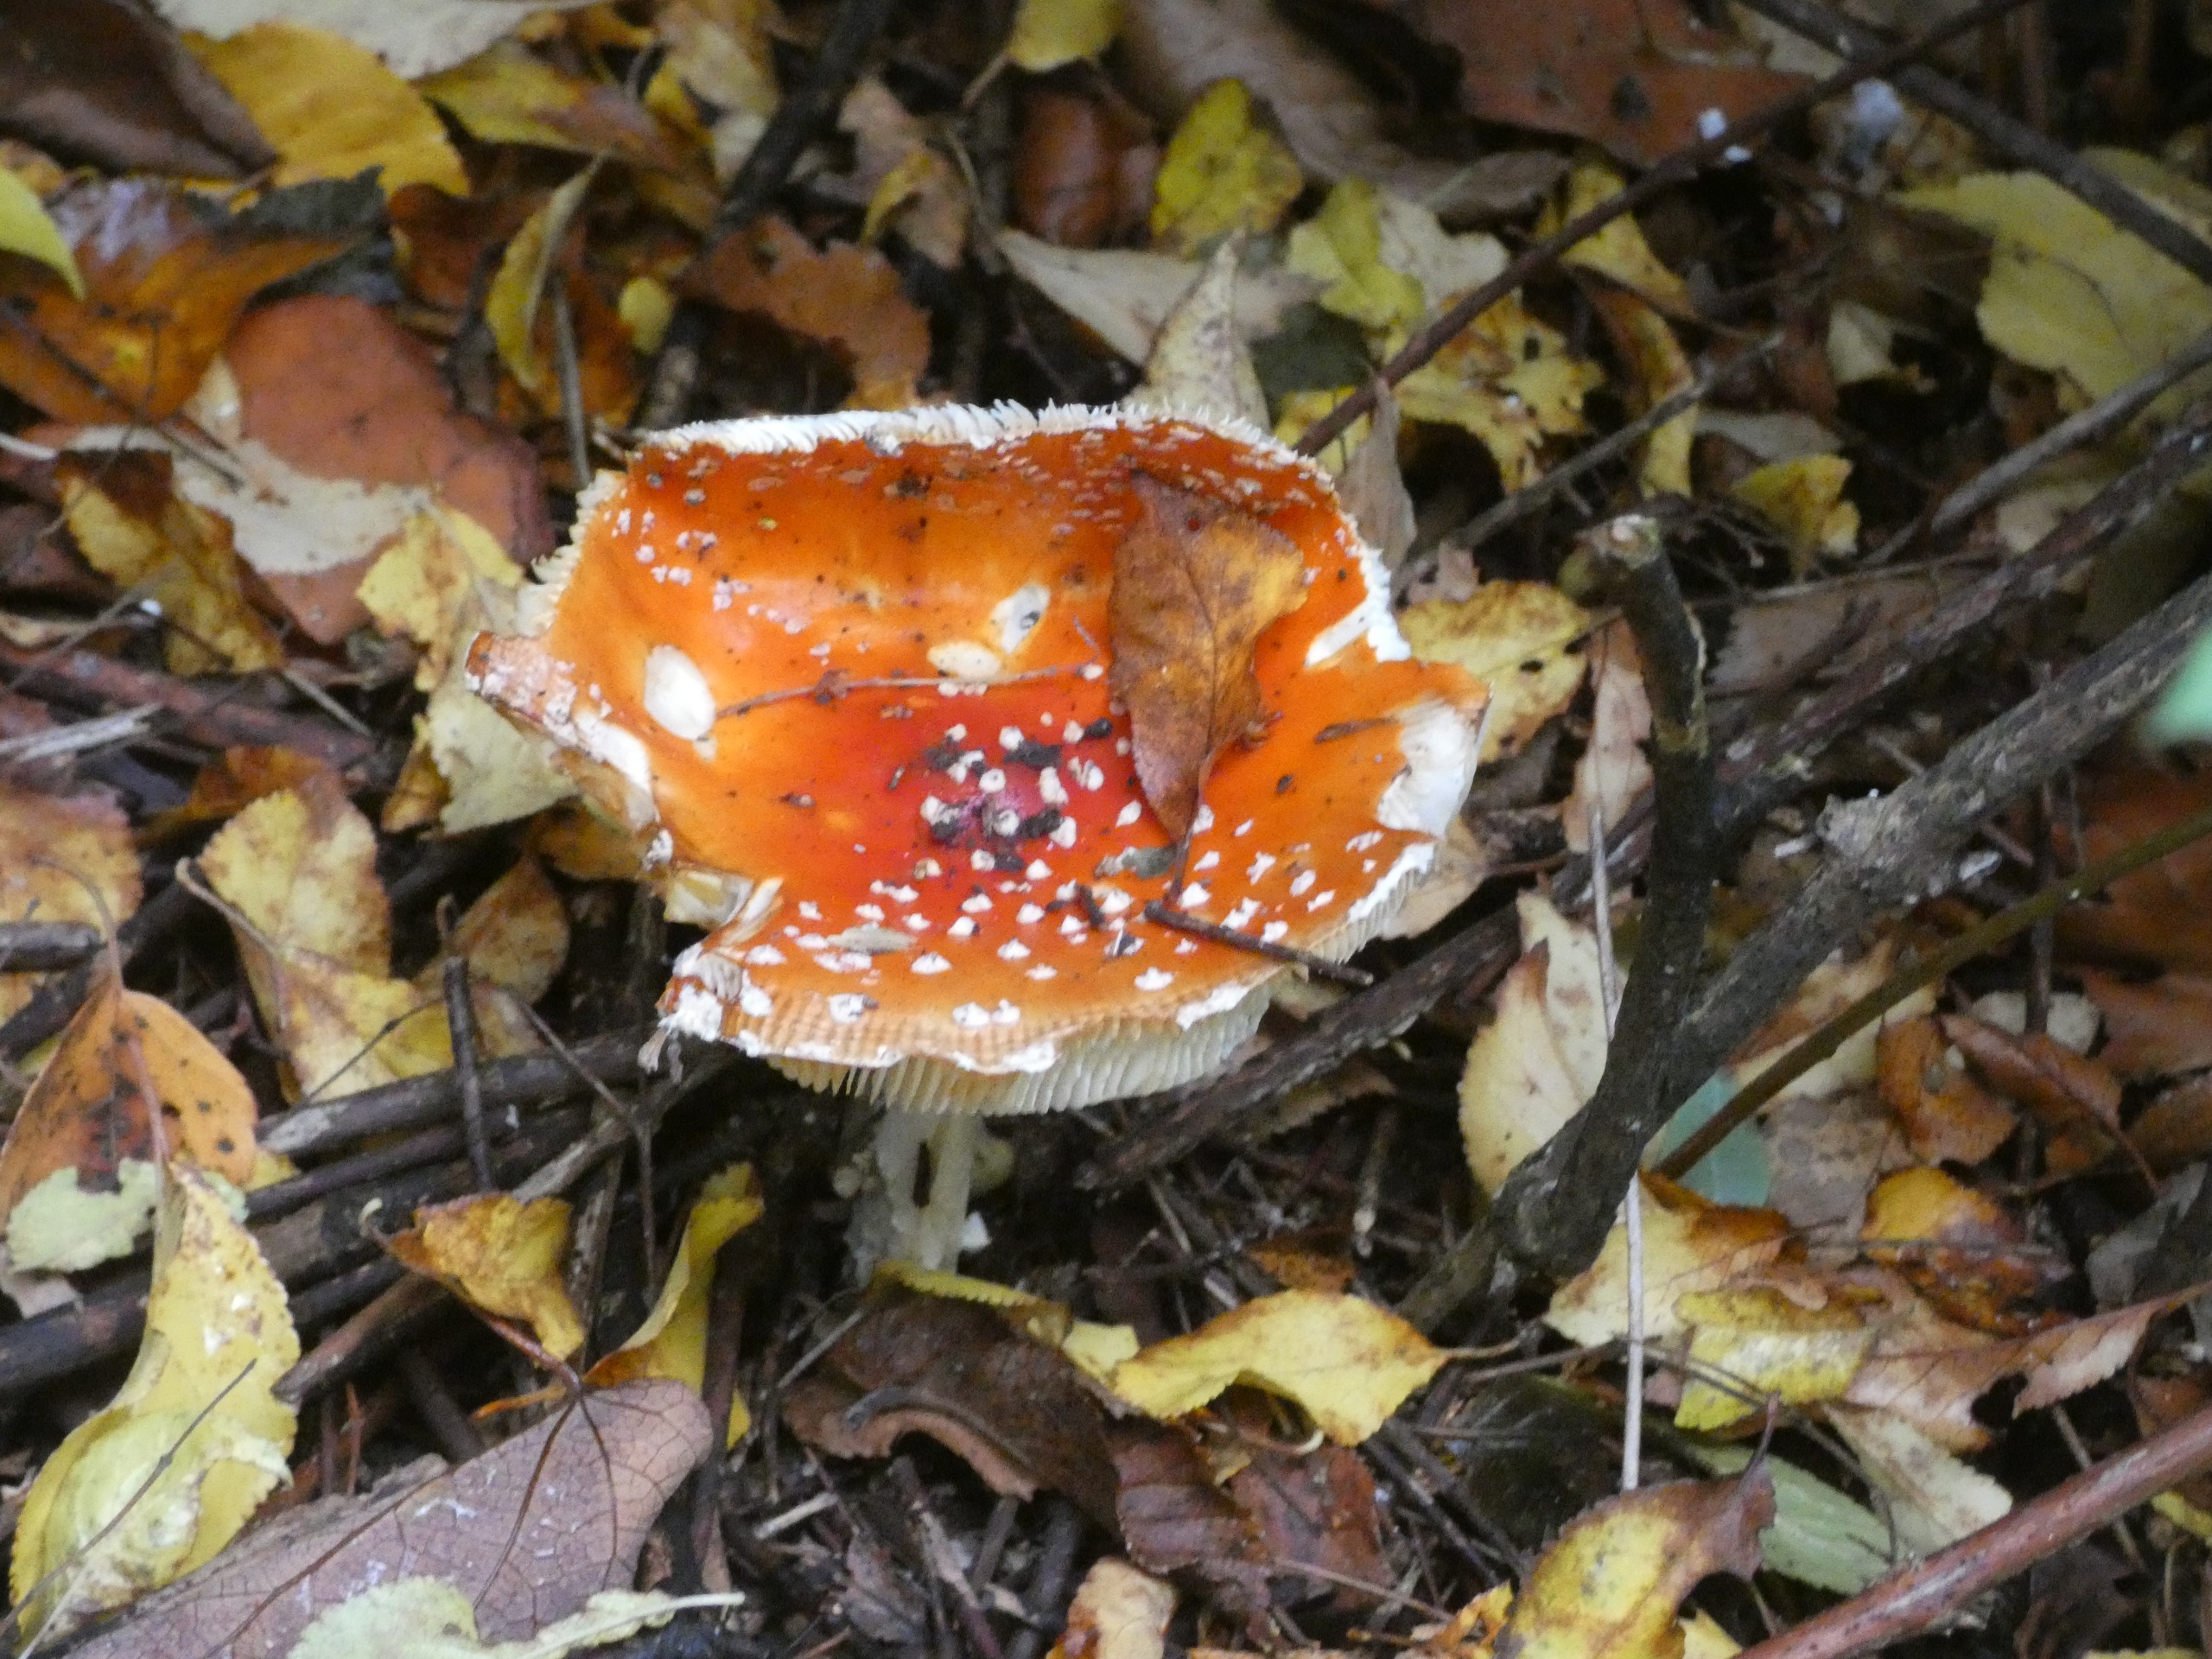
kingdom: Fungi
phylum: Basidiomycota
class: Agaricomycetes
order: Agaricales
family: Amanitaceae
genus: Amanita
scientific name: Amanita muscaria
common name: Rød fluesvamp
